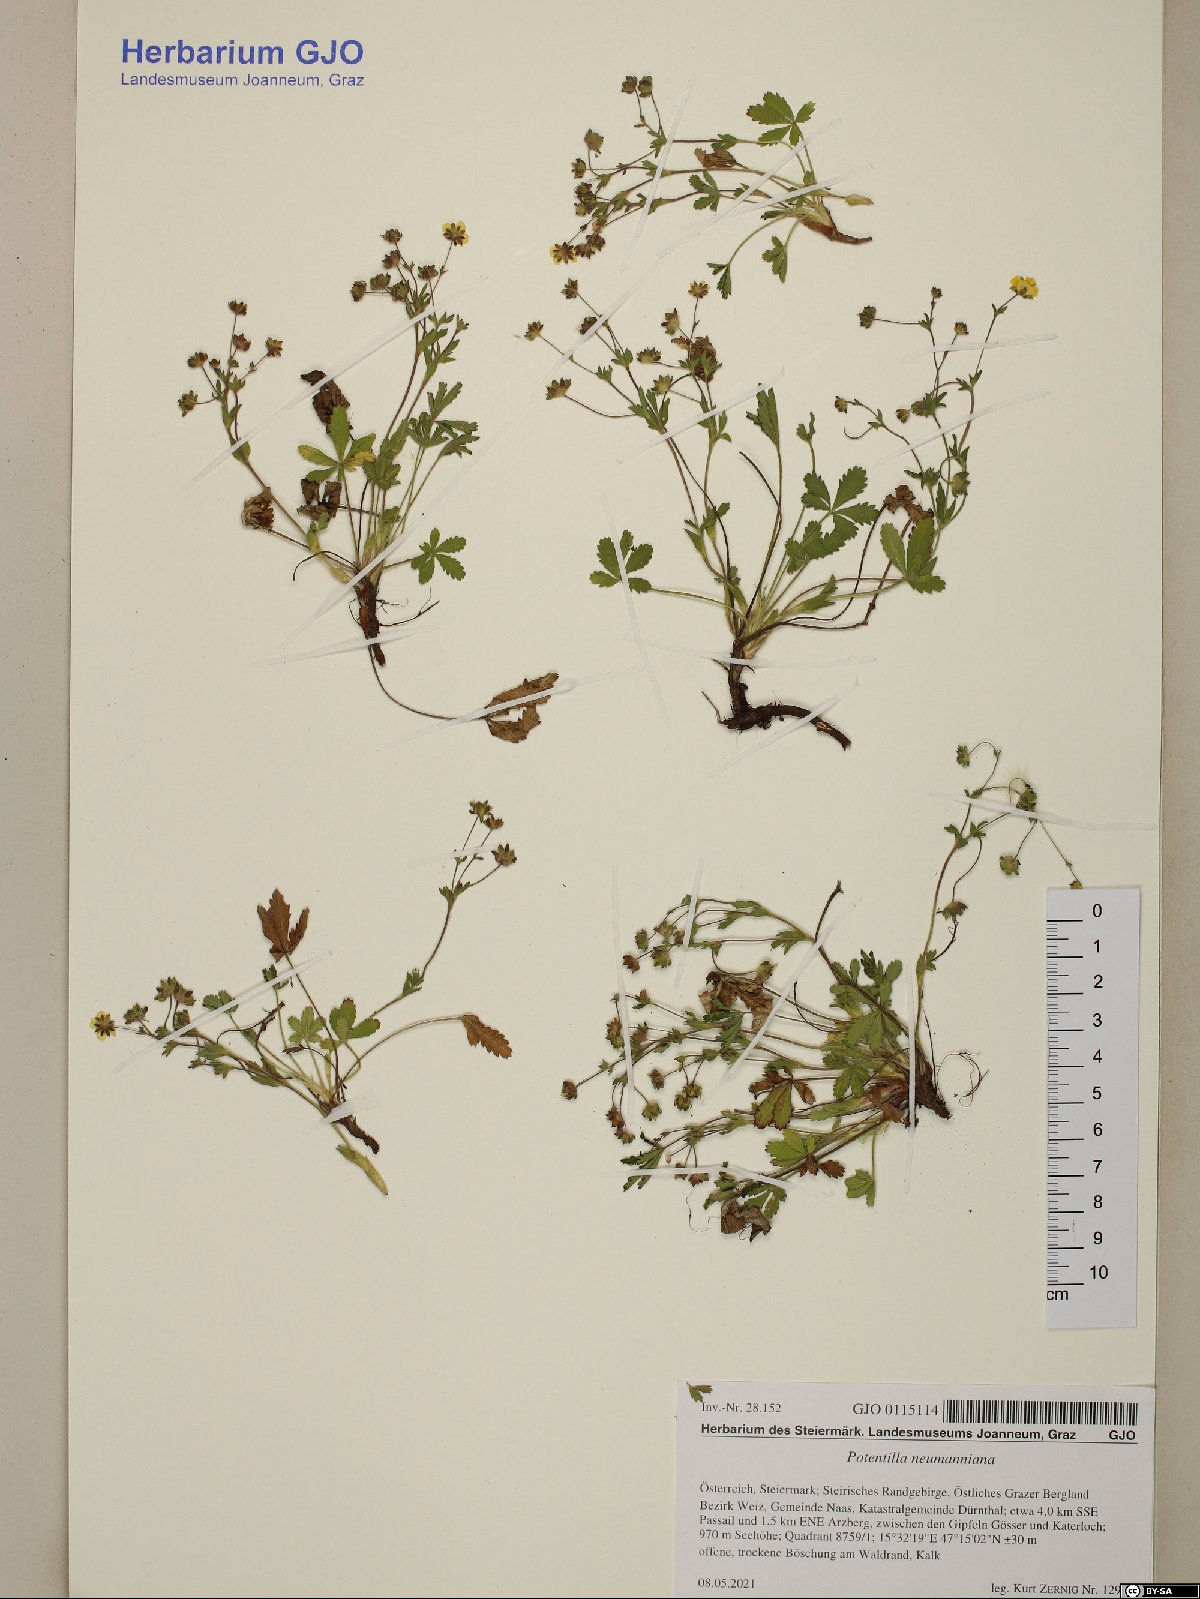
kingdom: Plantae
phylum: Tracheophyta
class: Magnoliopsida
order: Rosales
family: Rosaceae
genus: Potentilla
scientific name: Potentilla verna
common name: Spring cinquefoil
